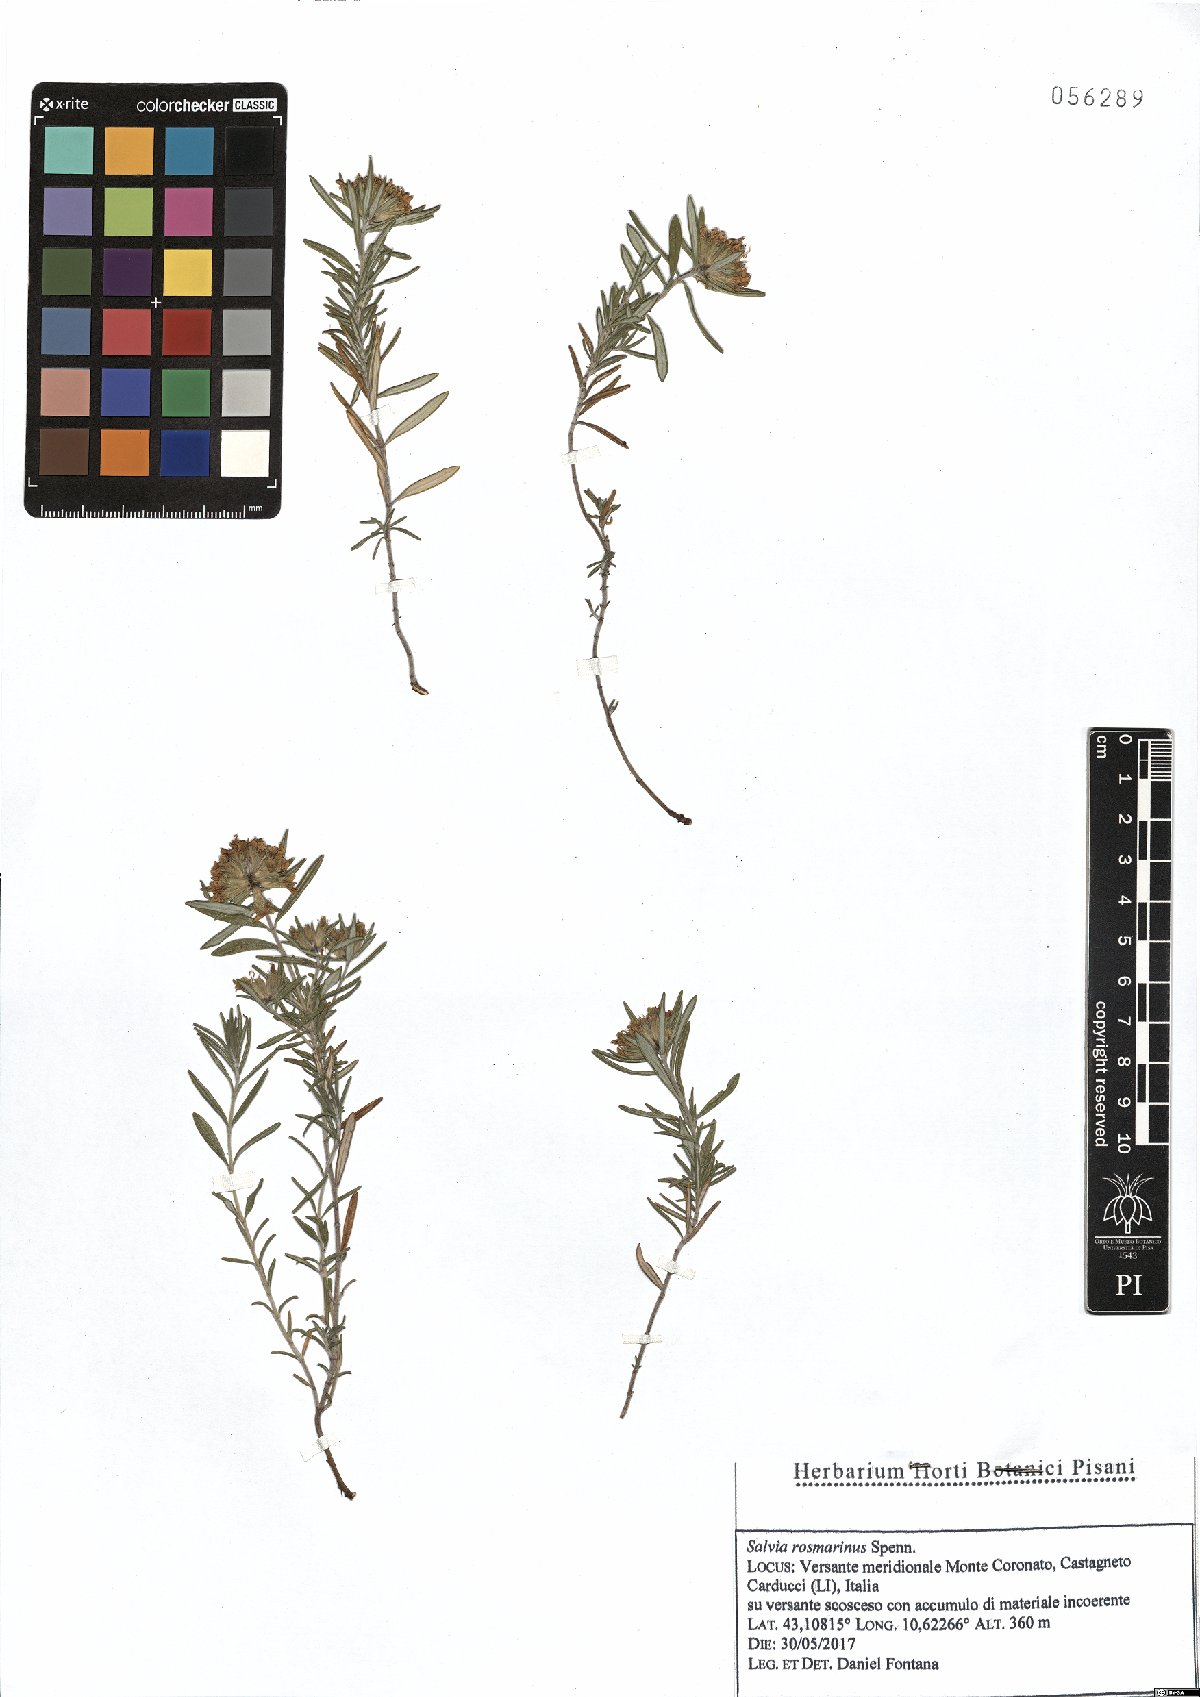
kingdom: Plantae
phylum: Tracheophyta
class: Magnoliopsida
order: Lamiales
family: Lamiaceae
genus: Salvia
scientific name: Salvia rosmarinus
